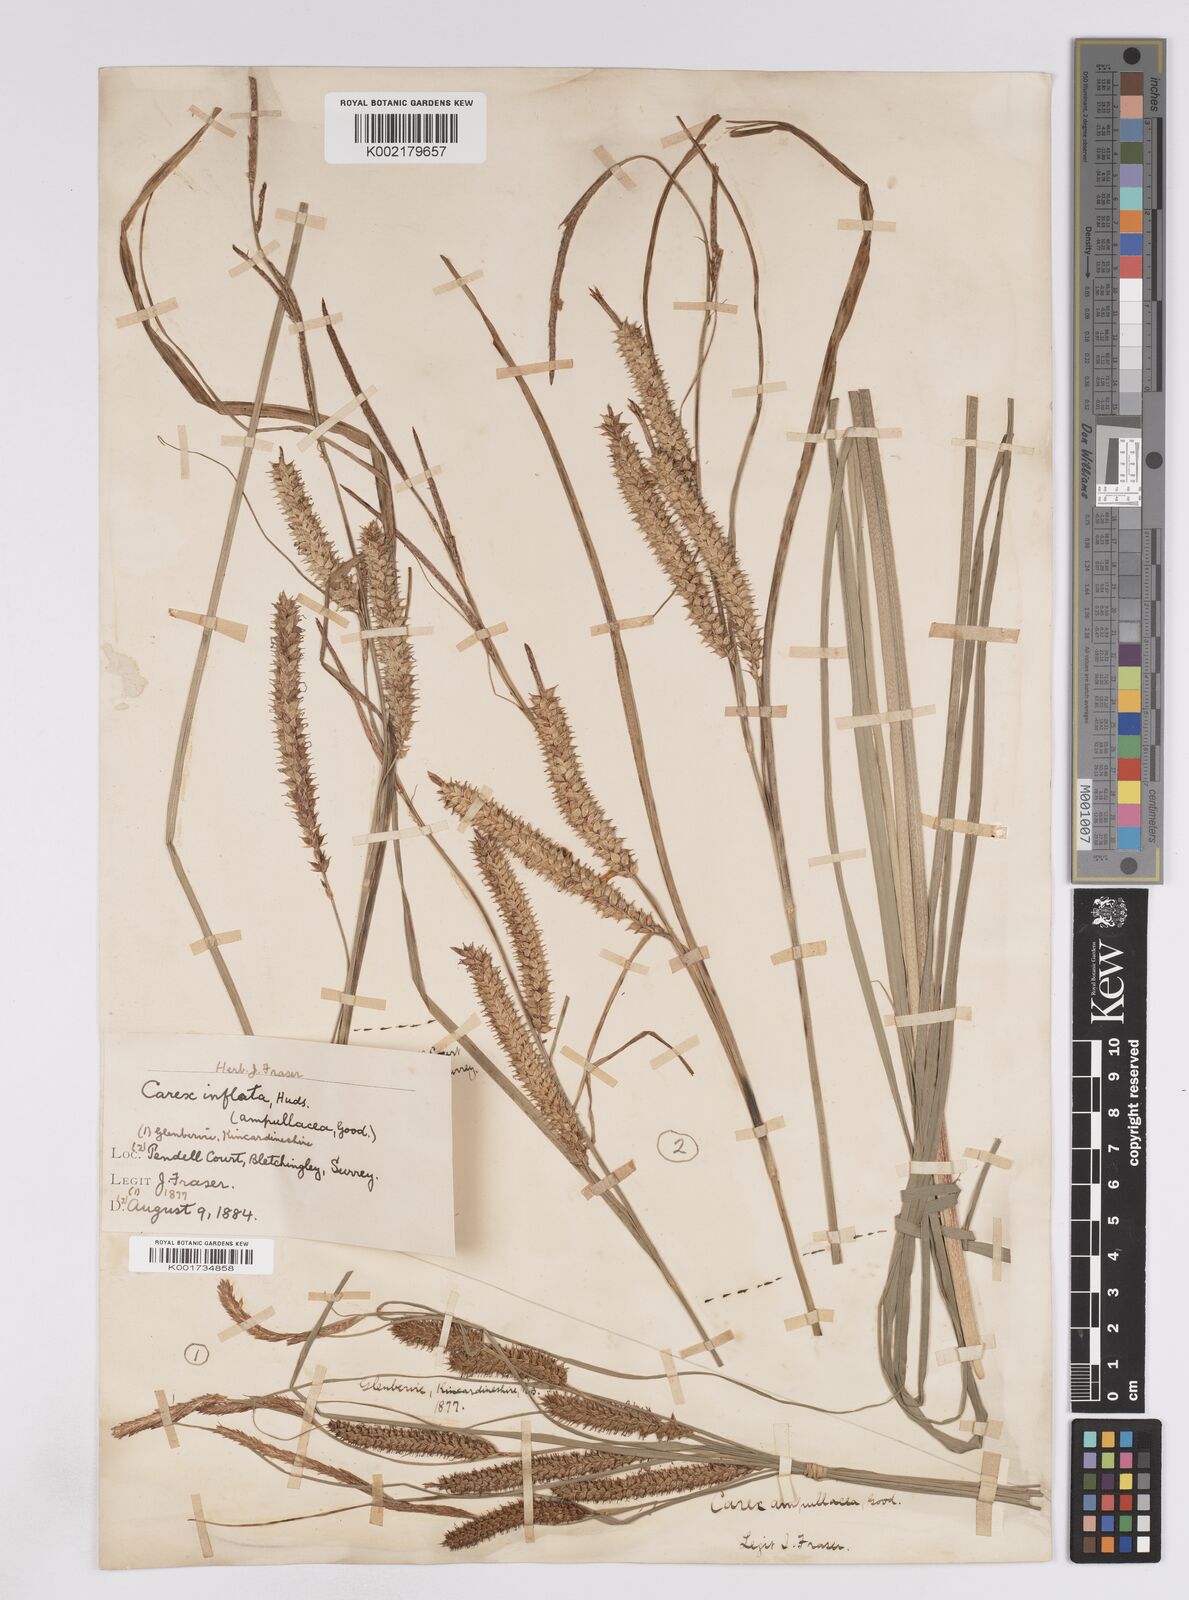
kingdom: Plantae
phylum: Tracheophyta
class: Liliopsida
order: Poales
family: Cyperaceae
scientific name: Cyperaceae
